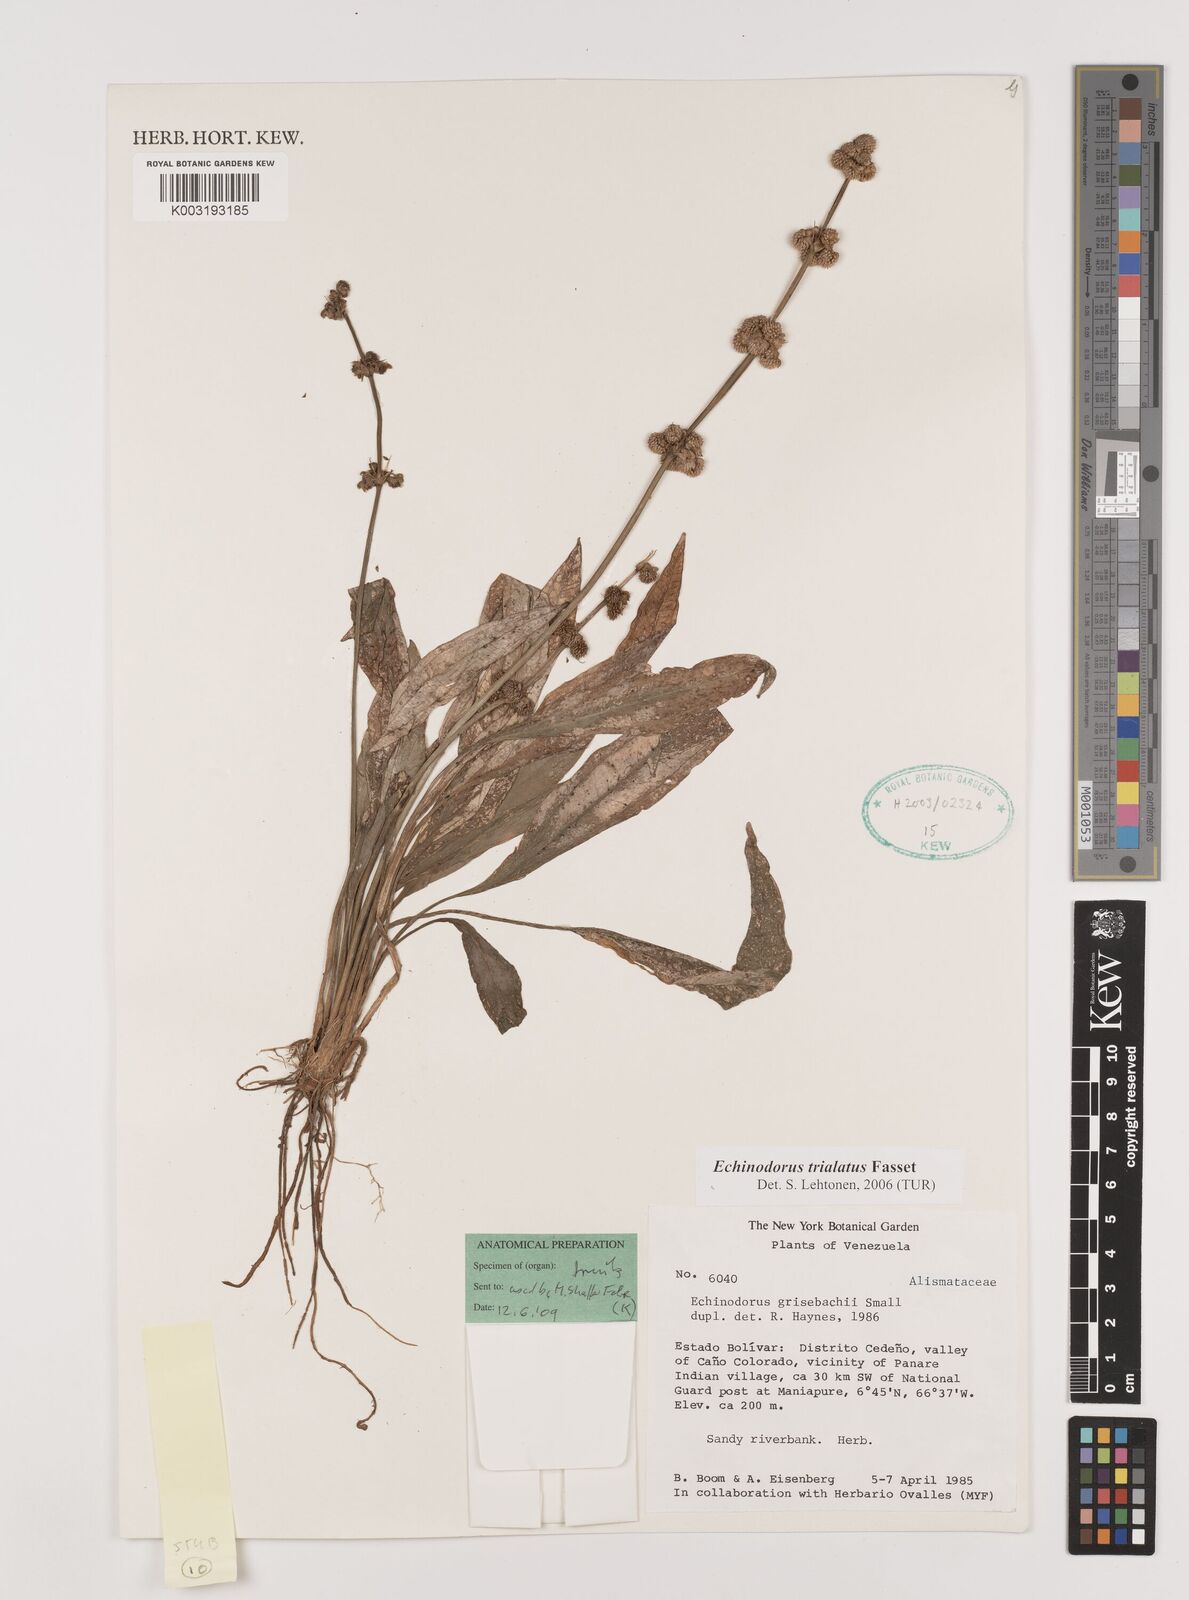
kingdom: Plantae
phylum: Tracheophyta
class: Liliopsida
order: Alismatales
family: Alismataceae
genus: Aquarius
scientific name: Aquarius trialatus
